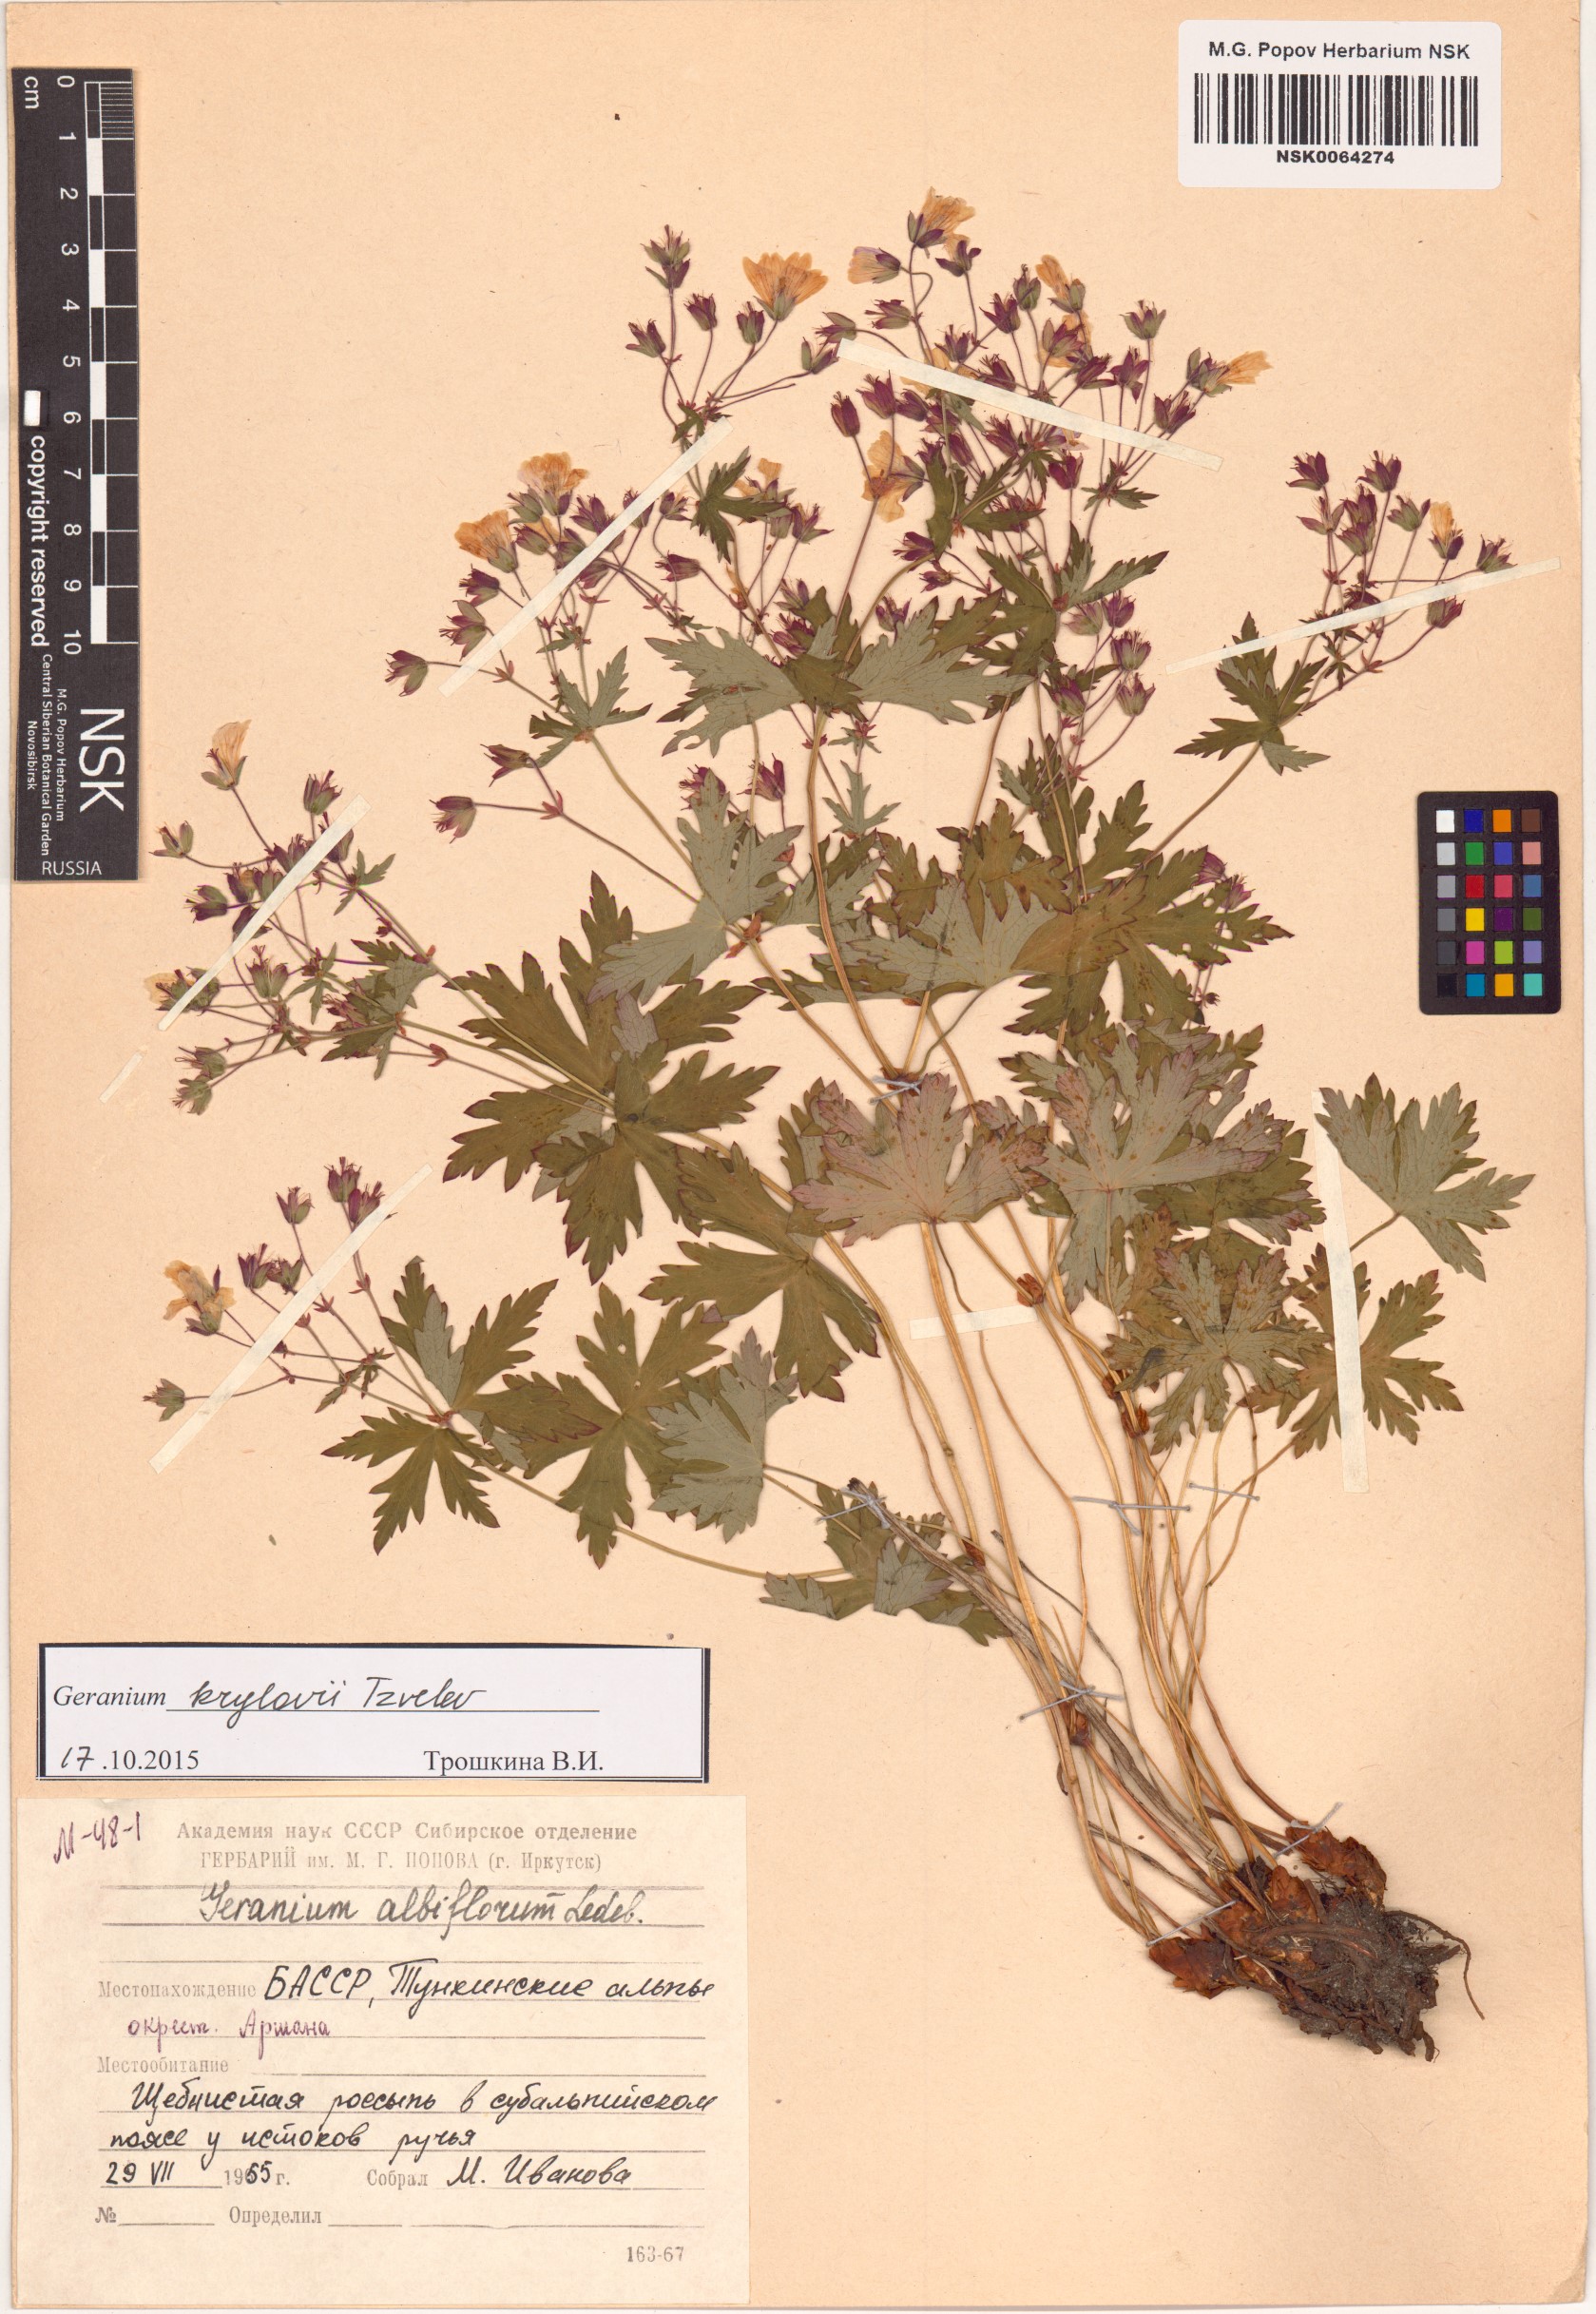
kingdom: Plantae
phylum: Tracheophyta
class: Magnoliopsida
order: Geraniales
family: Geraniaceae
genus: Geranium
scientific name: Geranium sylvaticum
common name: Wood crane's-bill
